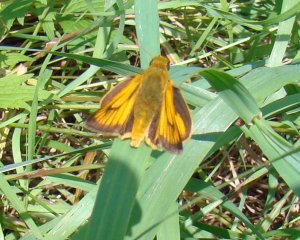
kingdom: Animalia
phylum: Arthropoda
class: Insecta
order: Lepidoptera
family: Hesperiidae
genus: Atrytone
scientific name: Atrytone delaware
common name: Delaware Skipper
